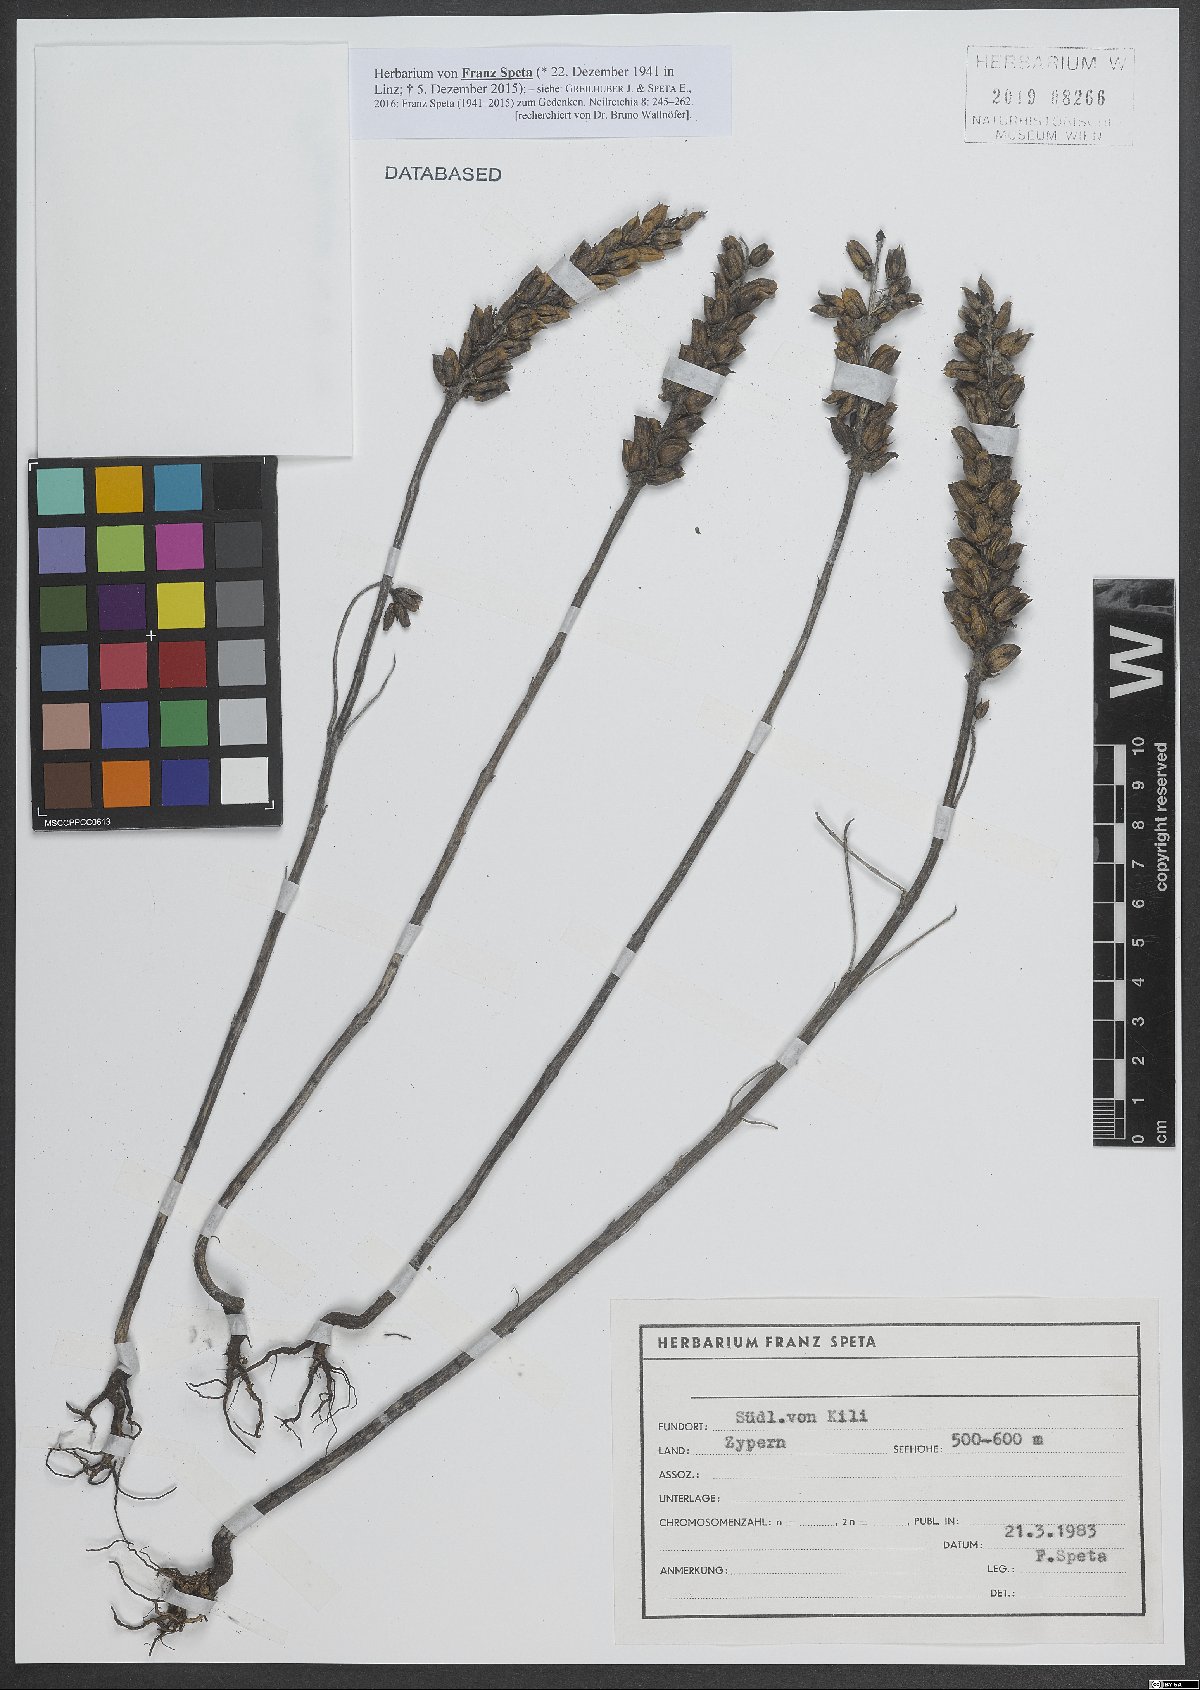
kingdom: Plantae
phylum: Tracheophyta
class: Magnoliopsida
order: Lamiales
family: Orobanchaceae
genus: Bellardia
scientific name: Bellardia trixago
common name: Mediterranean lineseed
